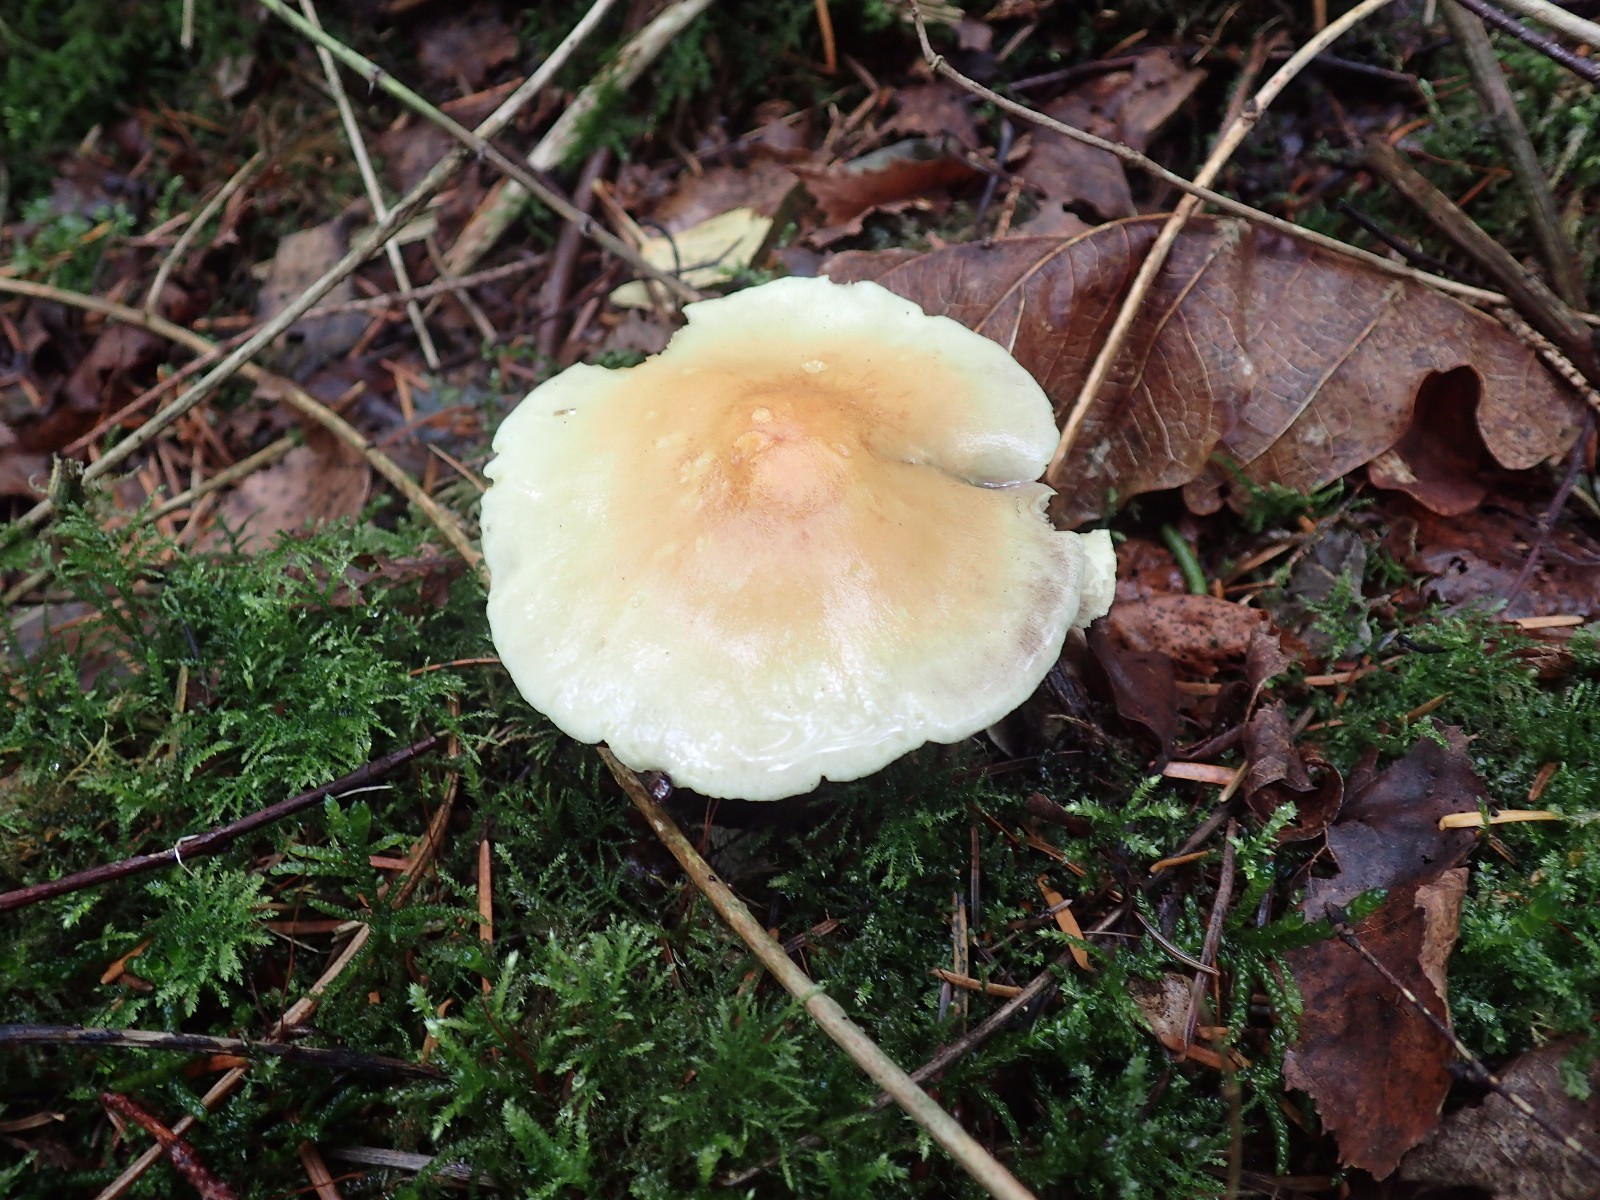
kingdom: Fungi
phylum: Basidiomycota
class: Agaricomycetes
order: Agaricales
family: Strophariaceae
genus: Hypholoma
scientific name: Hypholoma fasciculare
